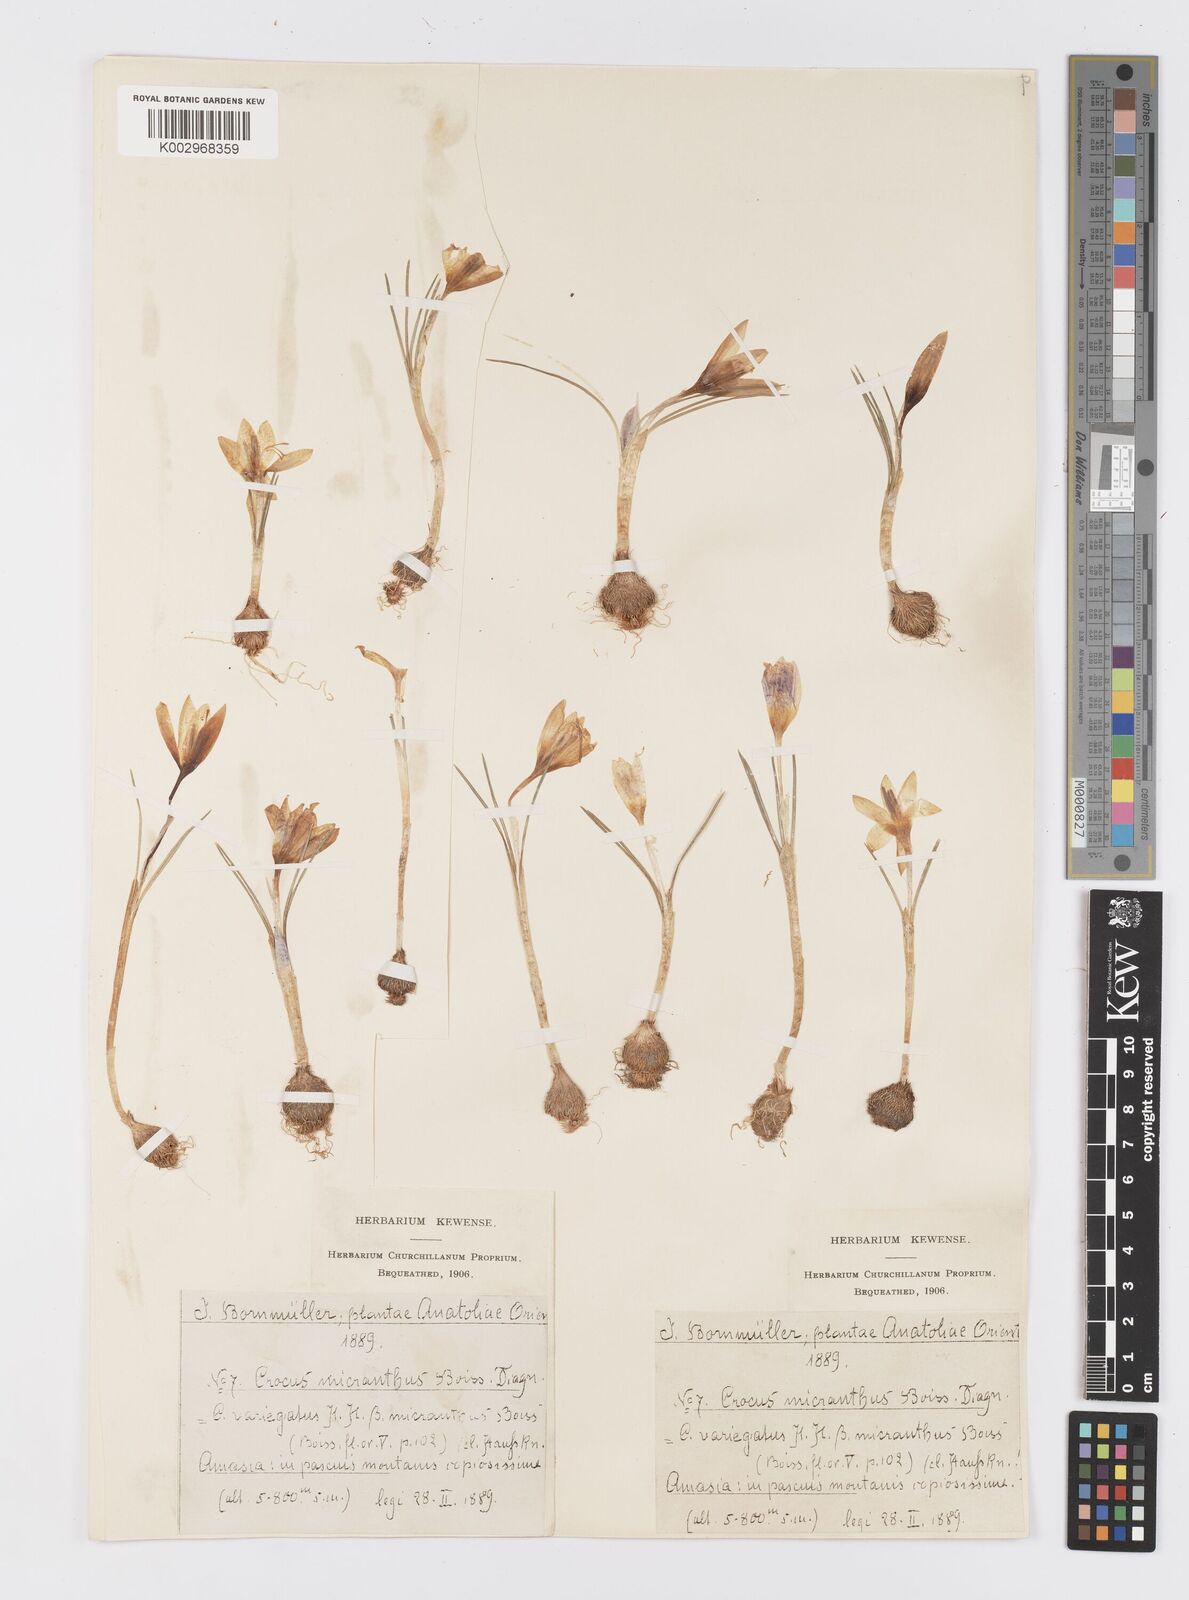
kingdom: Plantae
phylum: Tracheophyta
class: Liliopsida
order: Asparagales
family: Iridaceae
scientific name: Iridaceae
